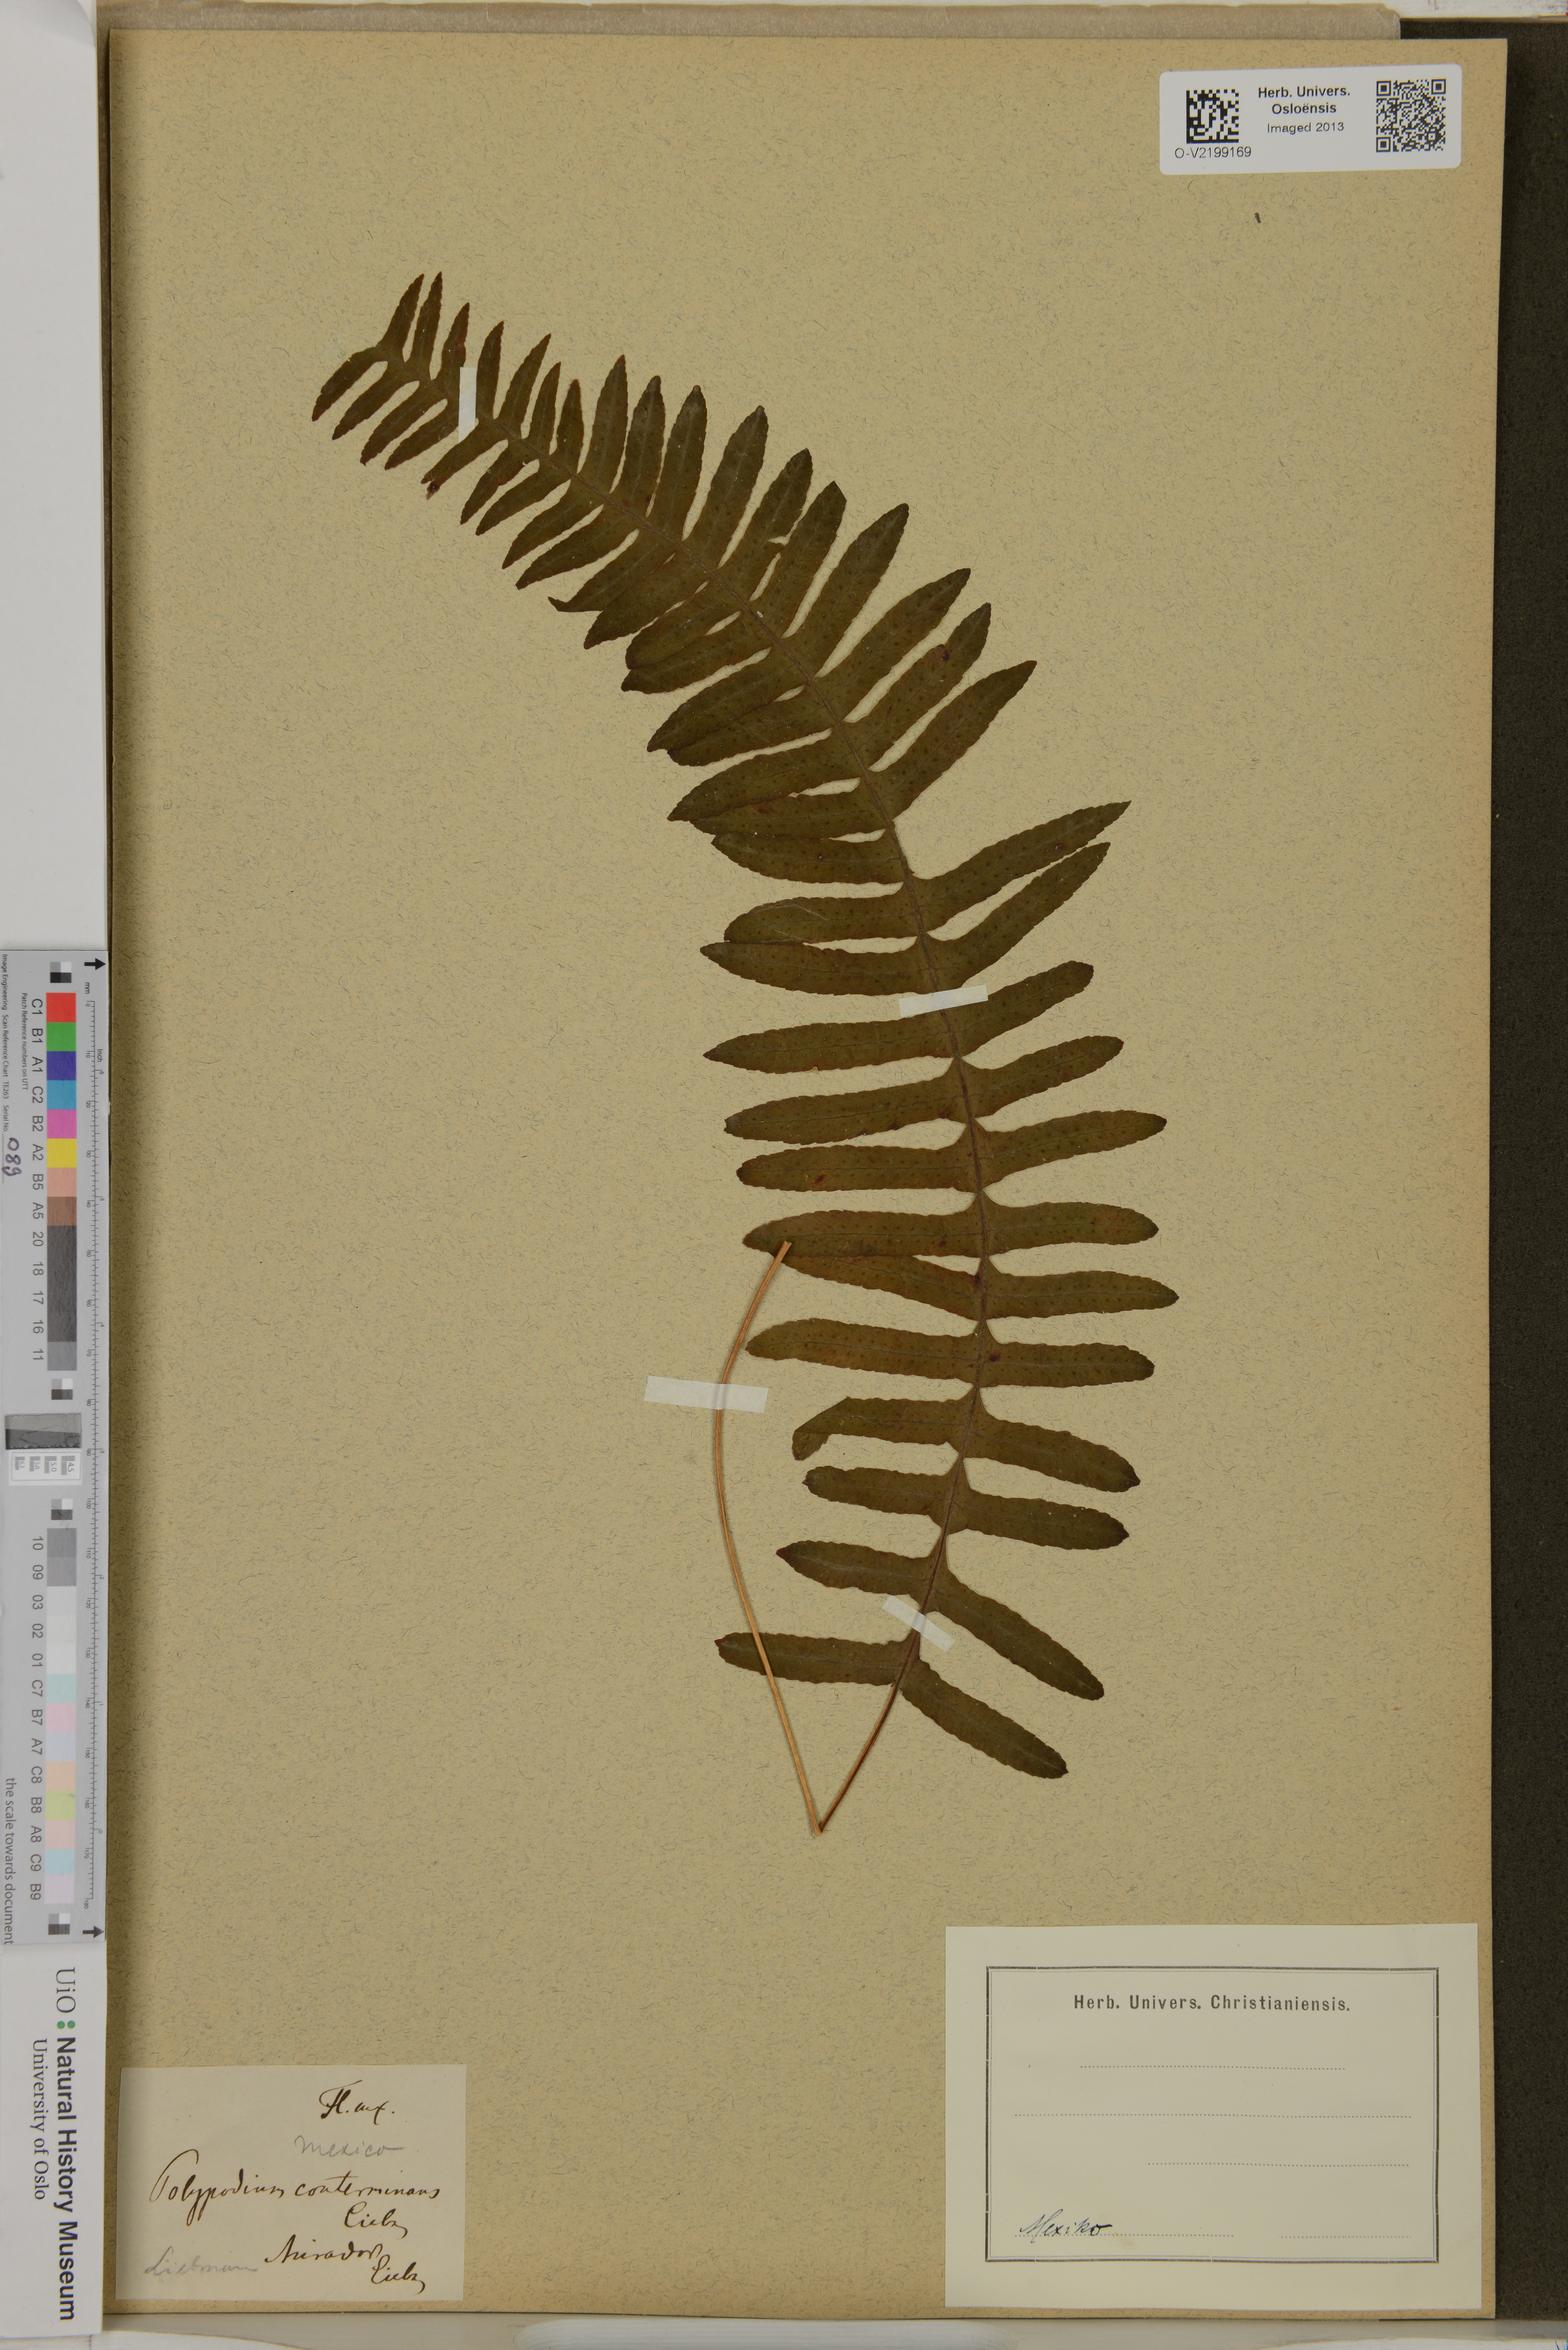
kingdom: Plantae
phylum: Tracheophyta
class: Polypodiopsida
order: Polypodiales
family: Polypodiaceae
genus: Polypodium
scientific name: Polypodium conterminans
